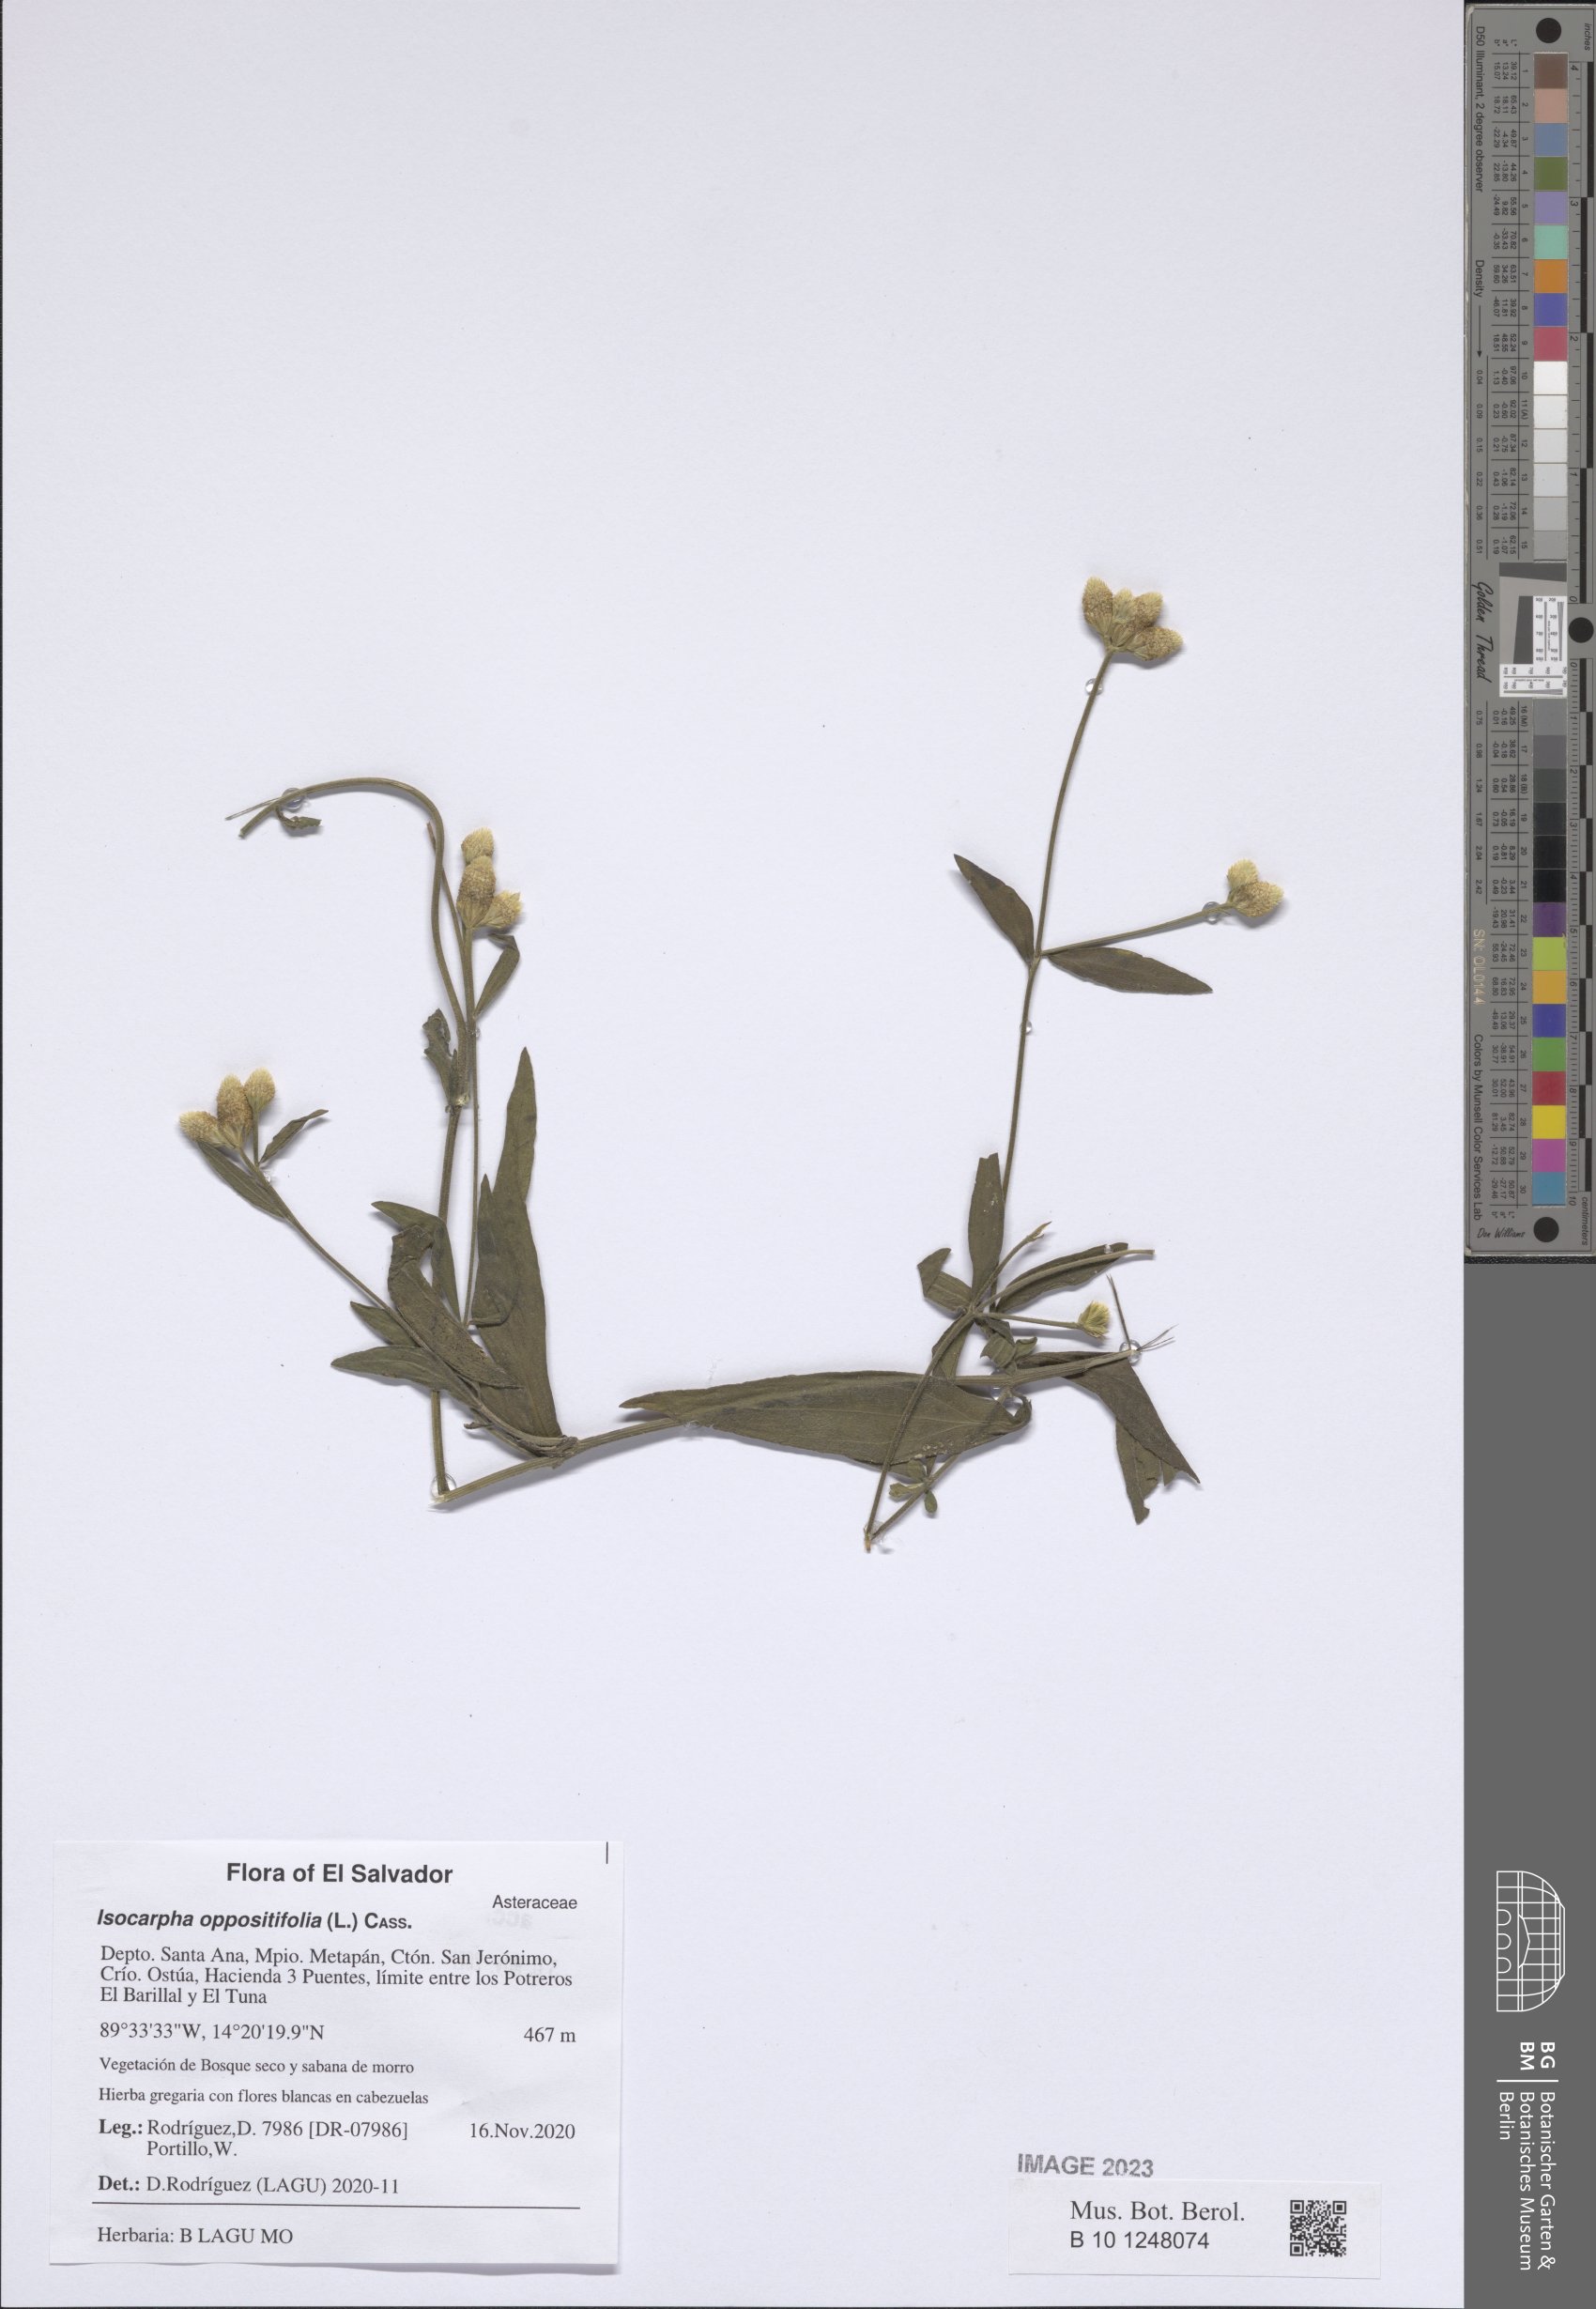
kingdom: Plantae
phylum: Tracheophyta
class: Magnoliopsida
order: Asterales
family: Asteraceae
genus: Isocarpha
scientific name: Isocarpha oppositifolia
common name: Rio grande pearlhead
